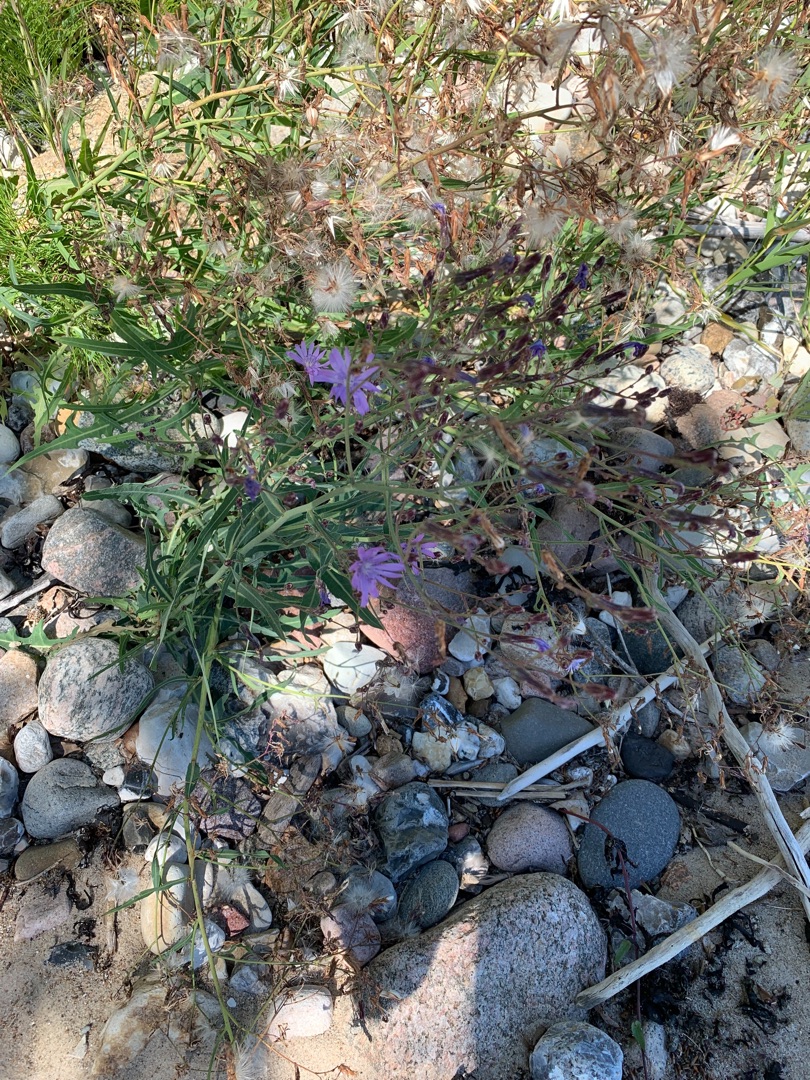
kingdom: Plantae
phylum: Tracheophyta
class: Magnoliopsida
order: Asterales
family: Asteraceae
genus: Lactuca
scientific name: Lactuca tatarica
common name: Strand-salat
